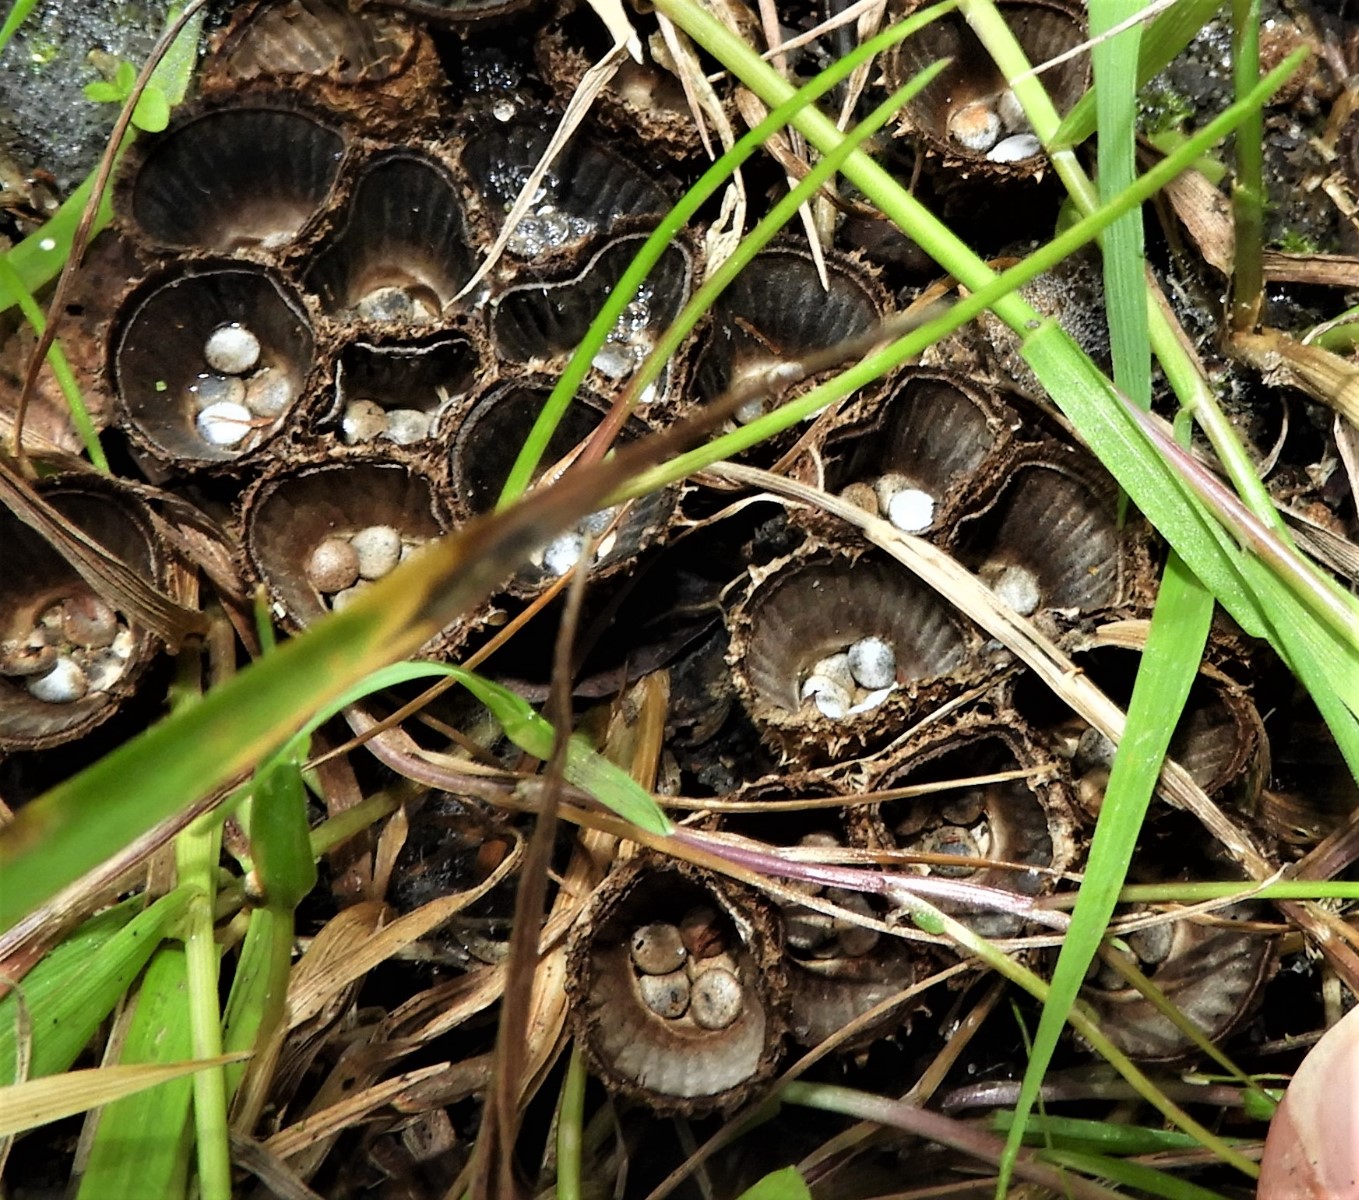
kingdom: Fungi
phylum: Basidiomycota
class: Agaricomycetes
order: Agaricales
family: Agaricaceae
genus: Cyathus
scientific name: Cyathus striatus
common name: stribet redesvamp
